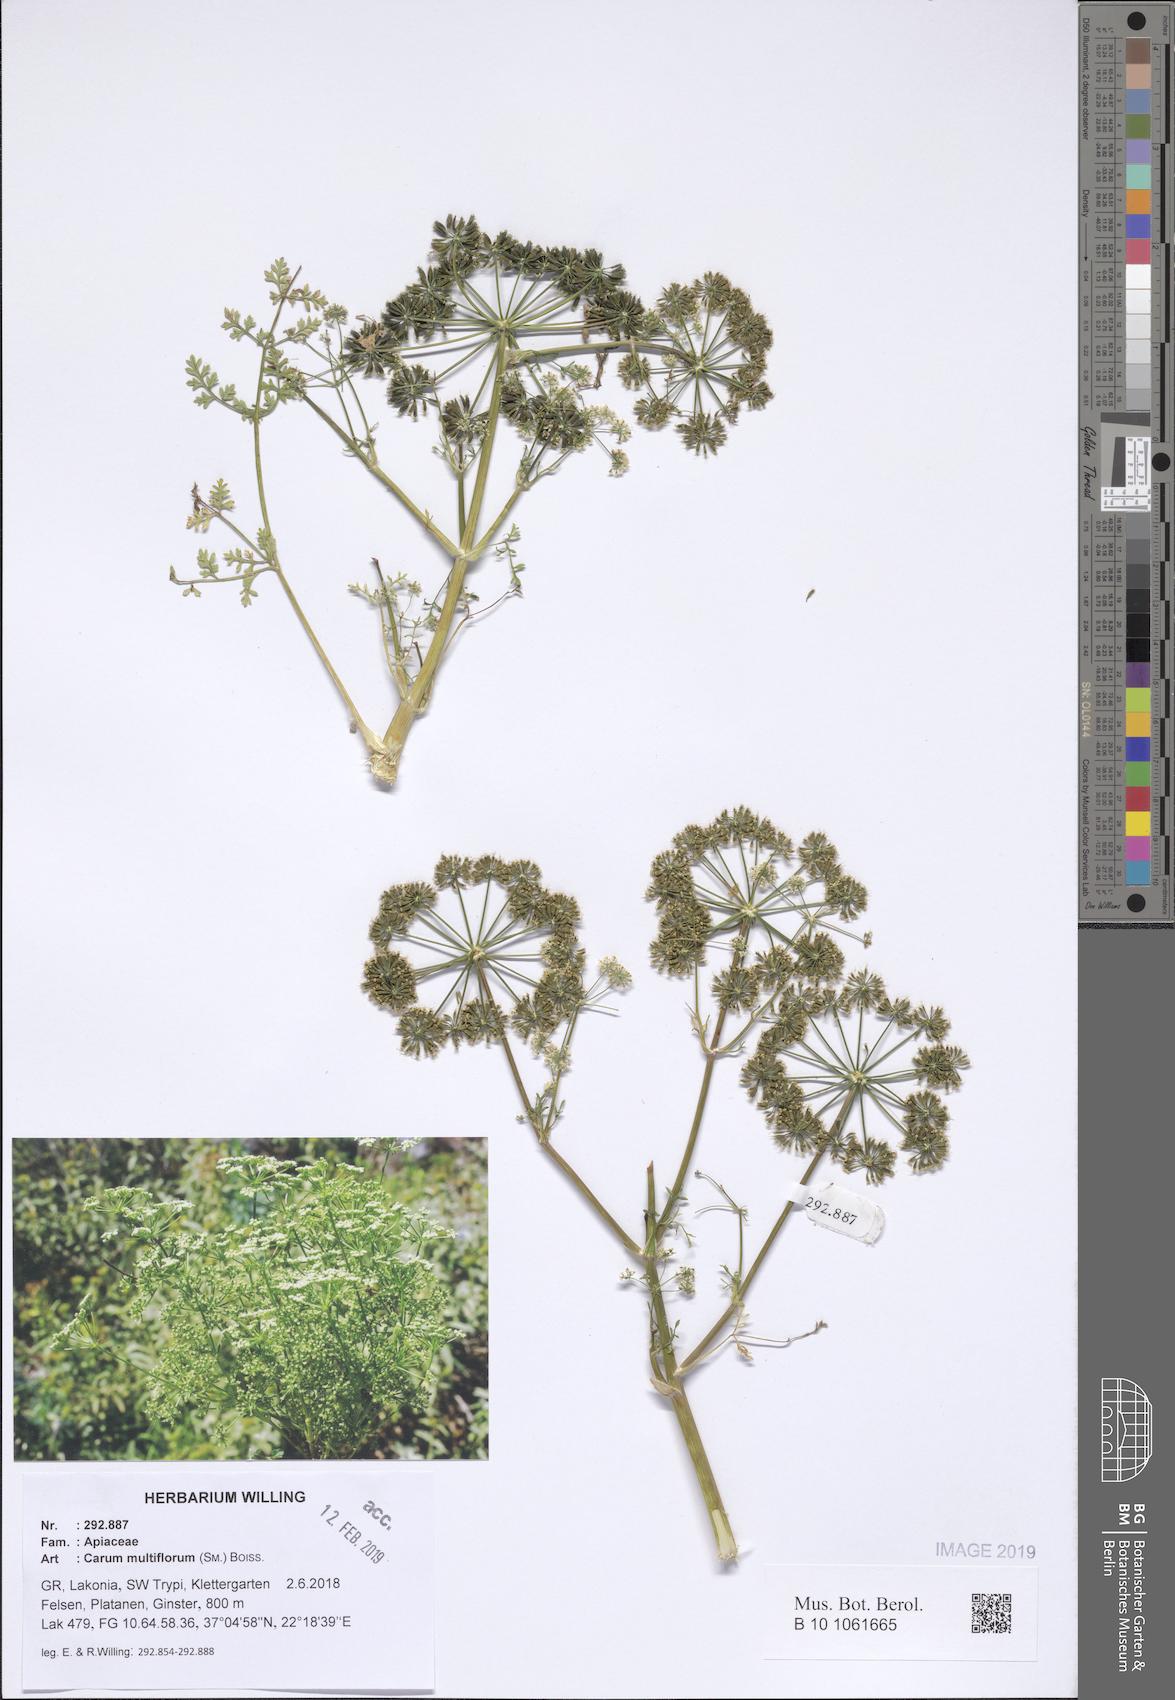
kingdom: Plantae
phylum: Tracheophyta
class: Magnoliopsida
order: Apiales
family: Apiaceae
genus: Hellenocarum
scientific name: Hellenocarum multiflorum
